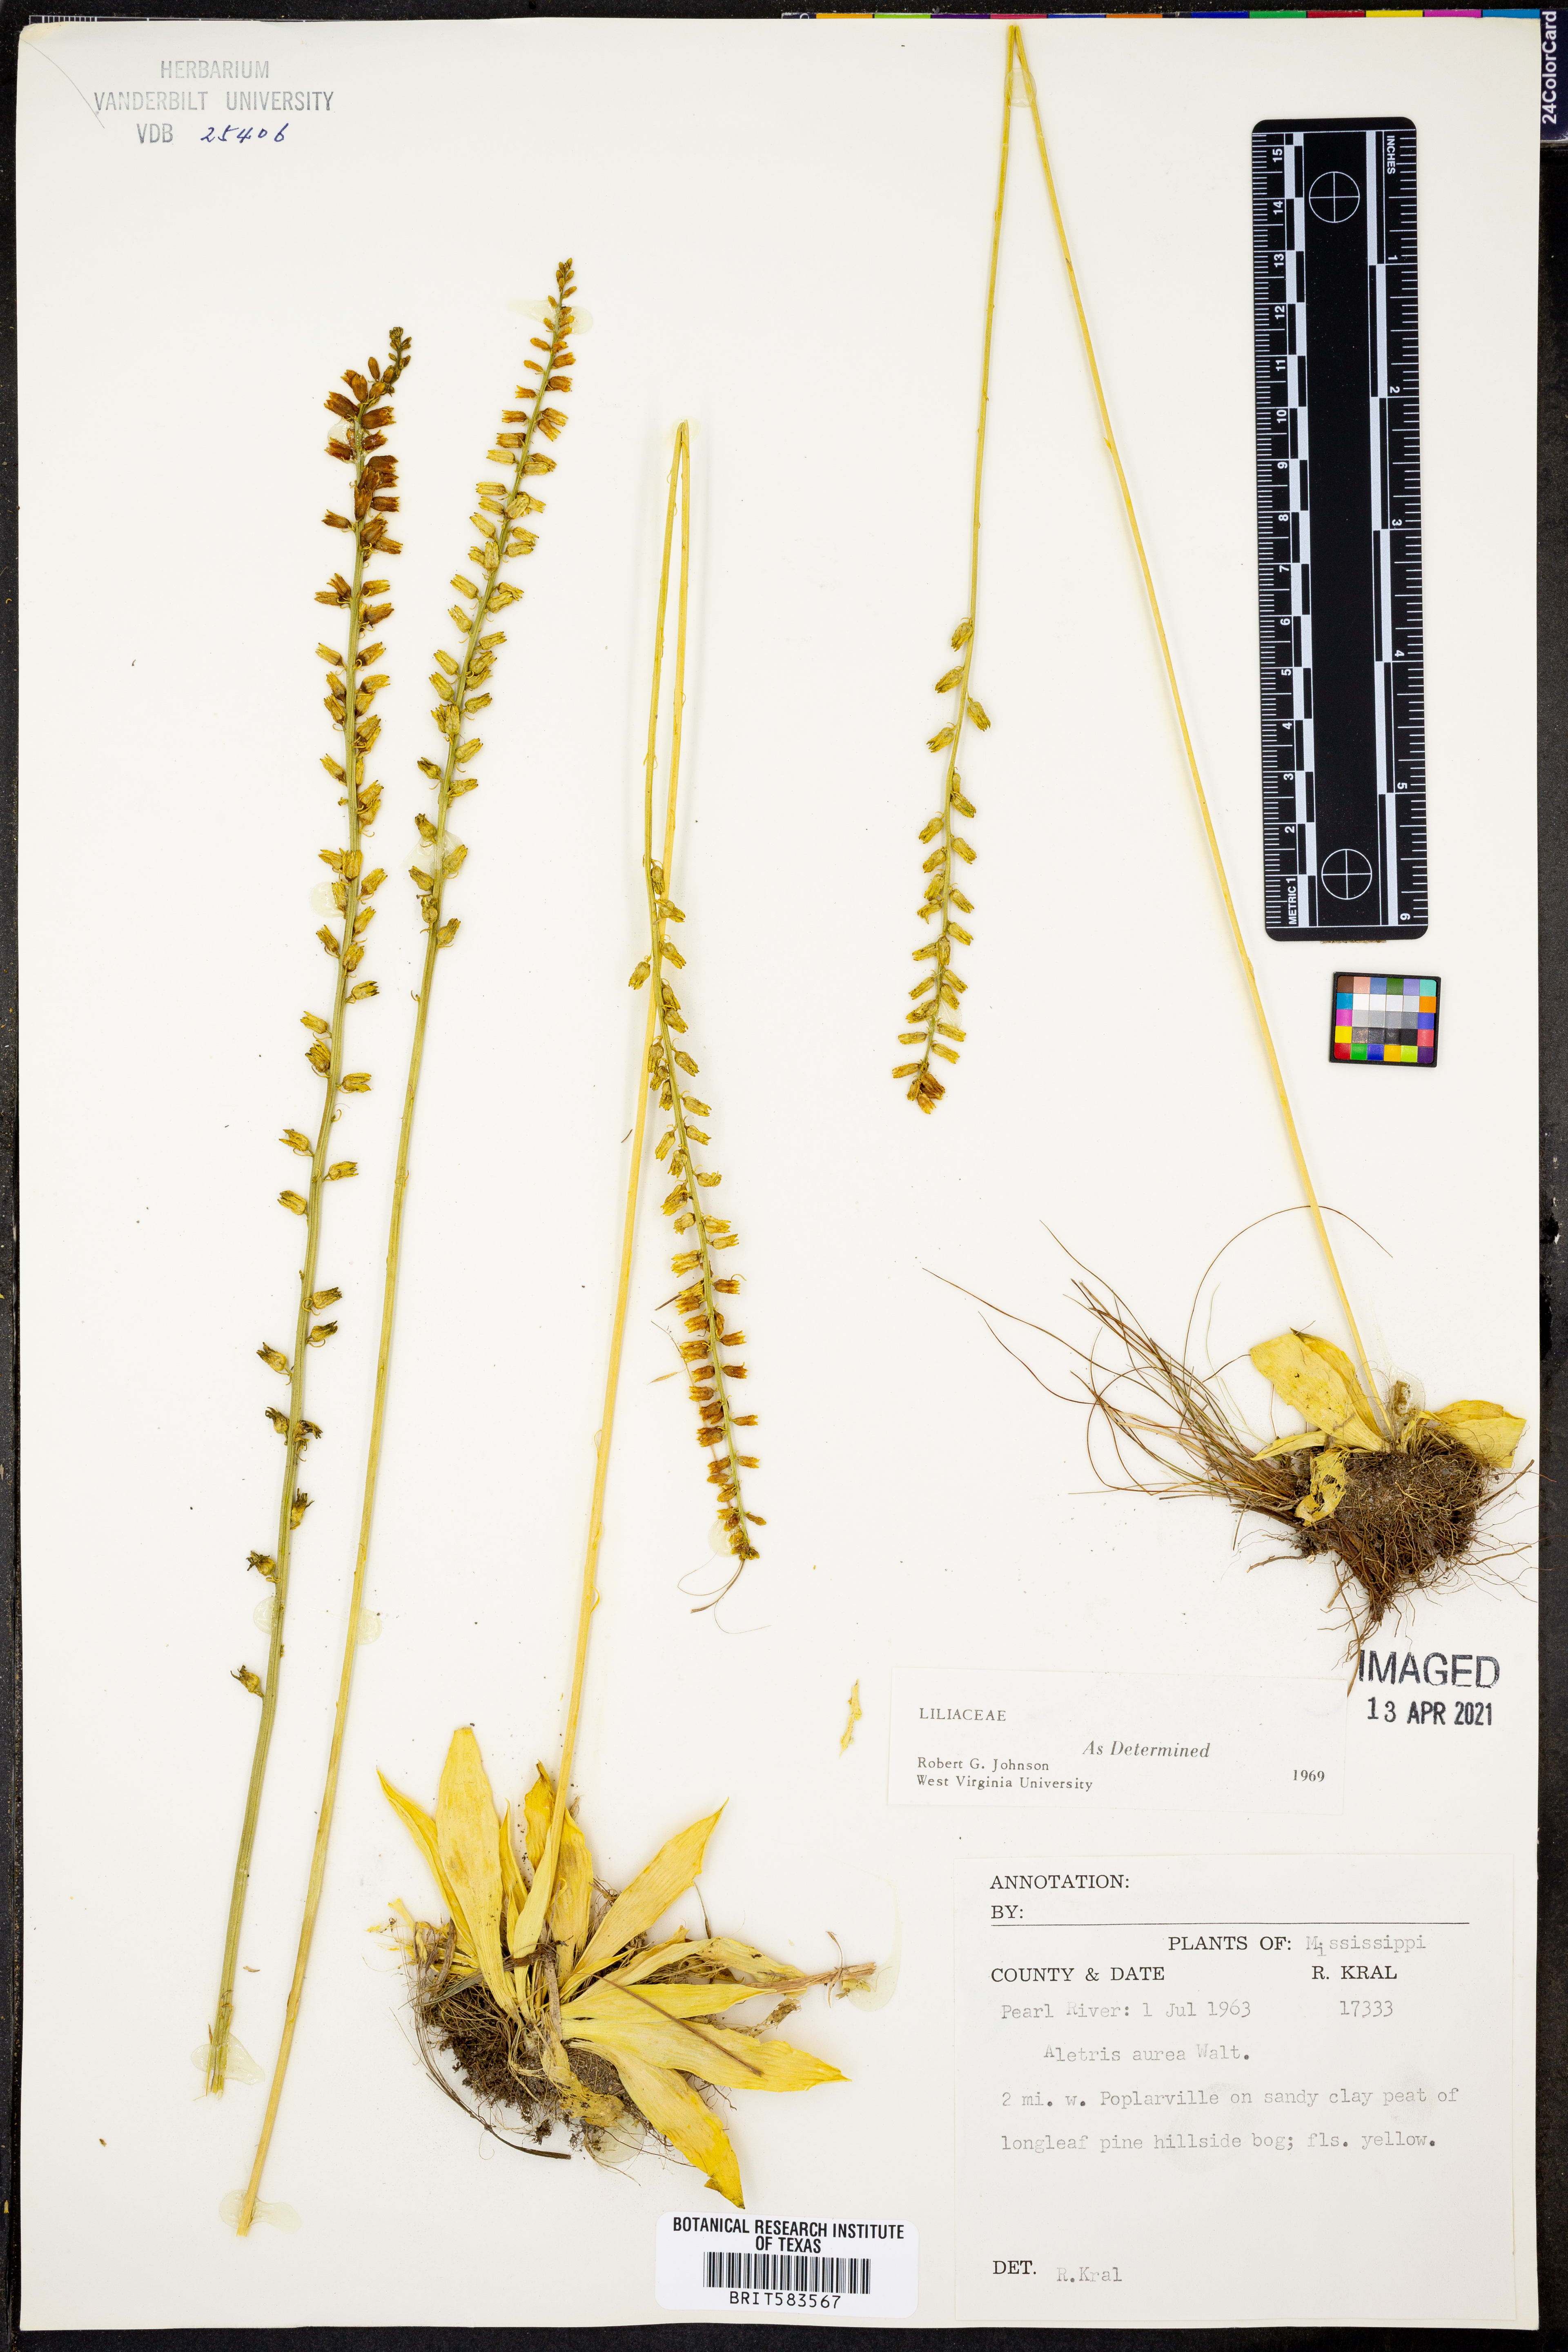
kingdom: Plantae
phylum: Tracheophyta
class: Liliopsida
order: Dioscoreales
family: Nartheciaceae
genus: Aletris
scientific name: Aletris aurea
